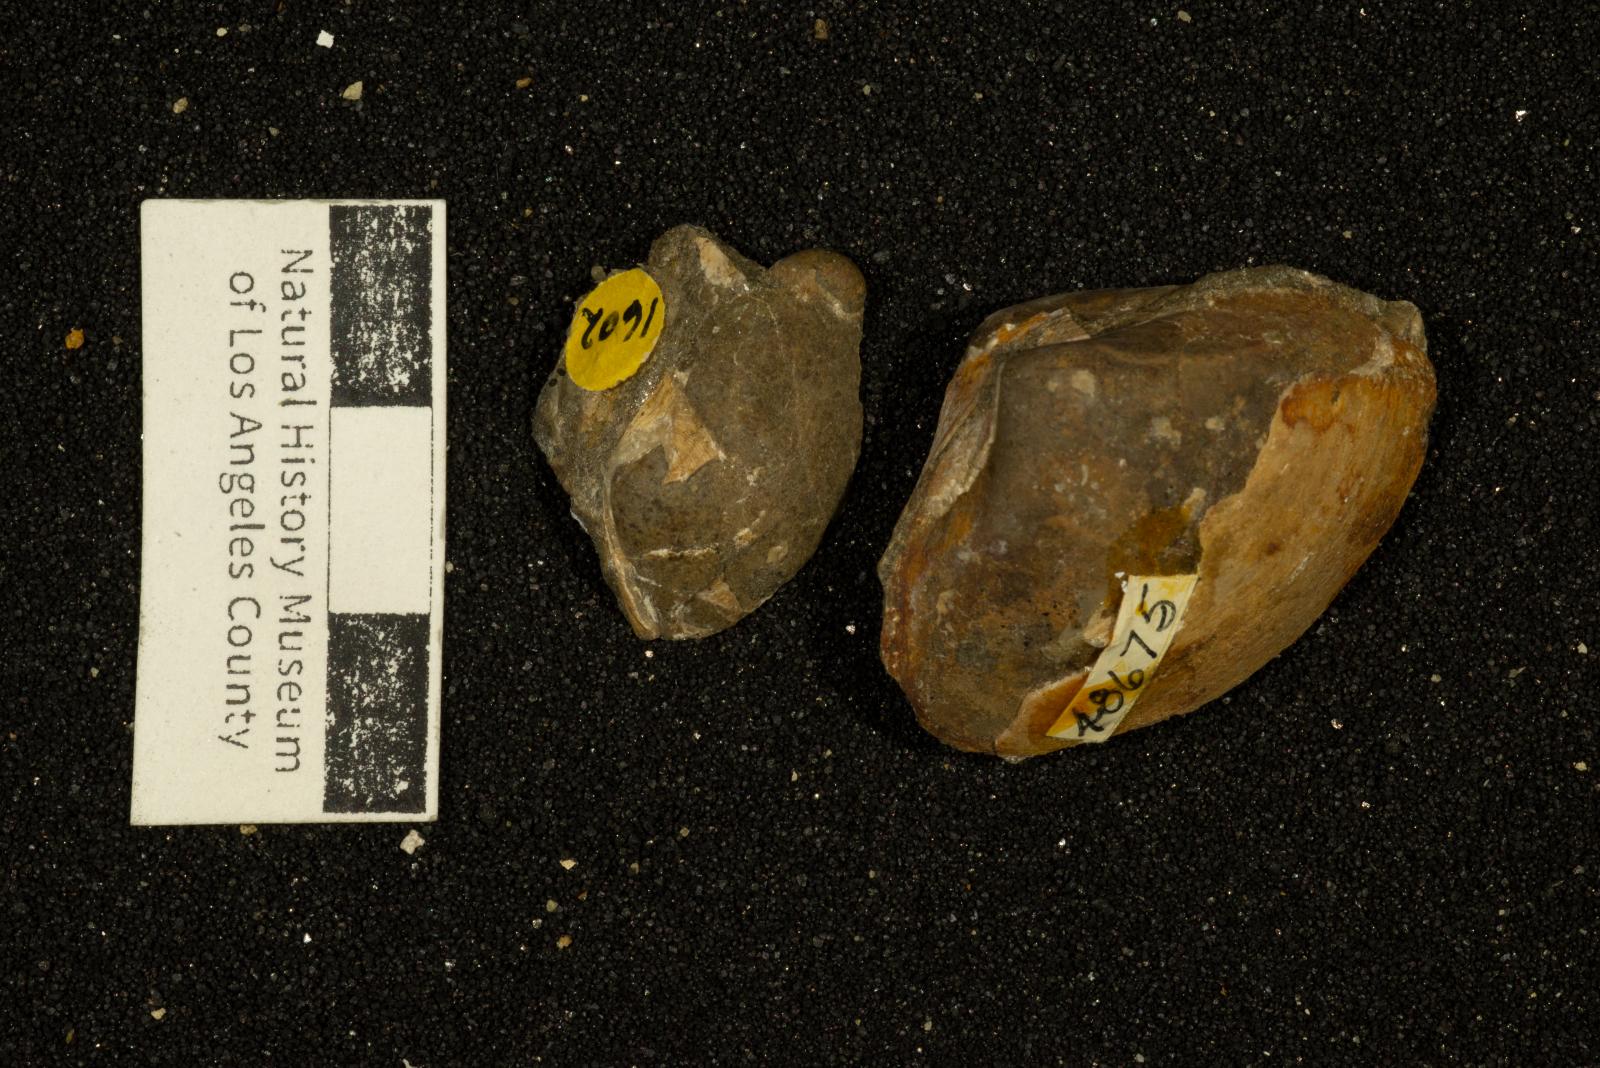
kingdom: Animalia
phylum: Mollusca
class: Bivalvia
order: Venerida
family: Mactridae
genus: Cymbophora
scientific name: Cymbophora ashburnerii
